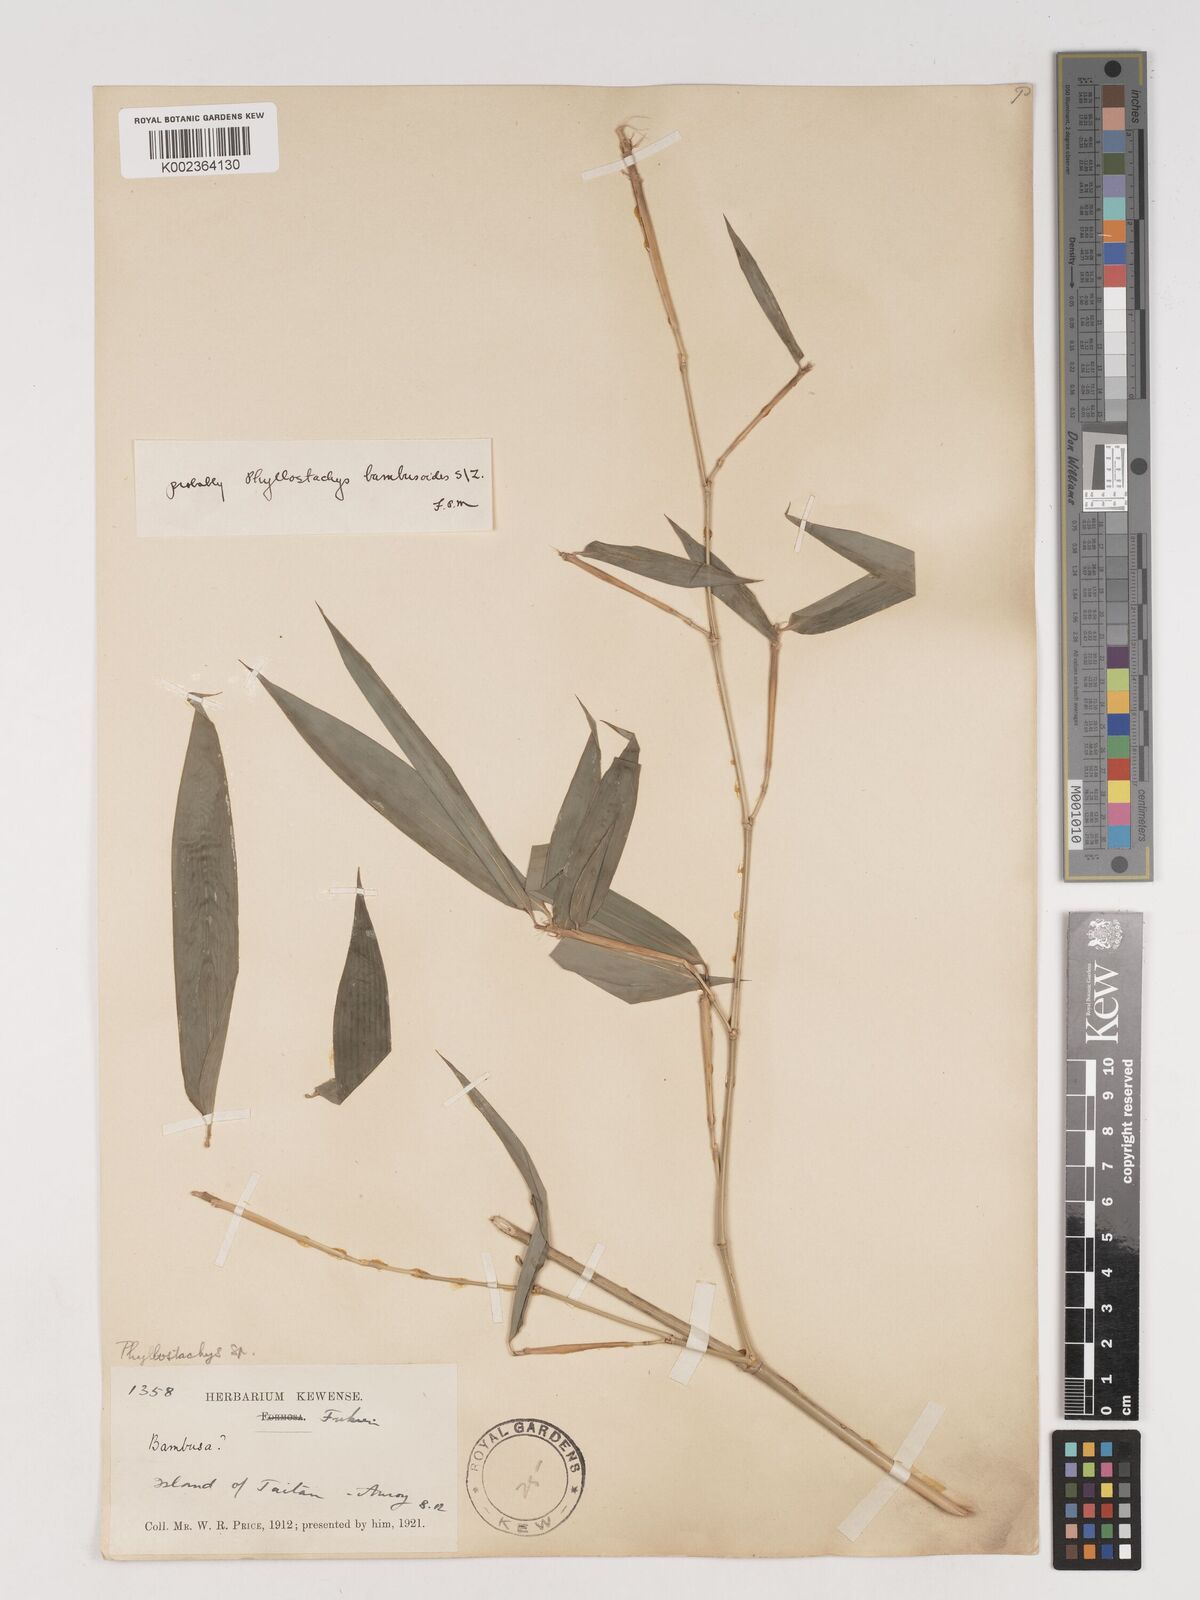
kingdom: Plantae
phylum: Tracheophyta
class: Liliopsida
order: Poales
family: Poaceae
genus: Phyllostachys
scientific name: Phyllostachys reticulata
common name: Bamboo
